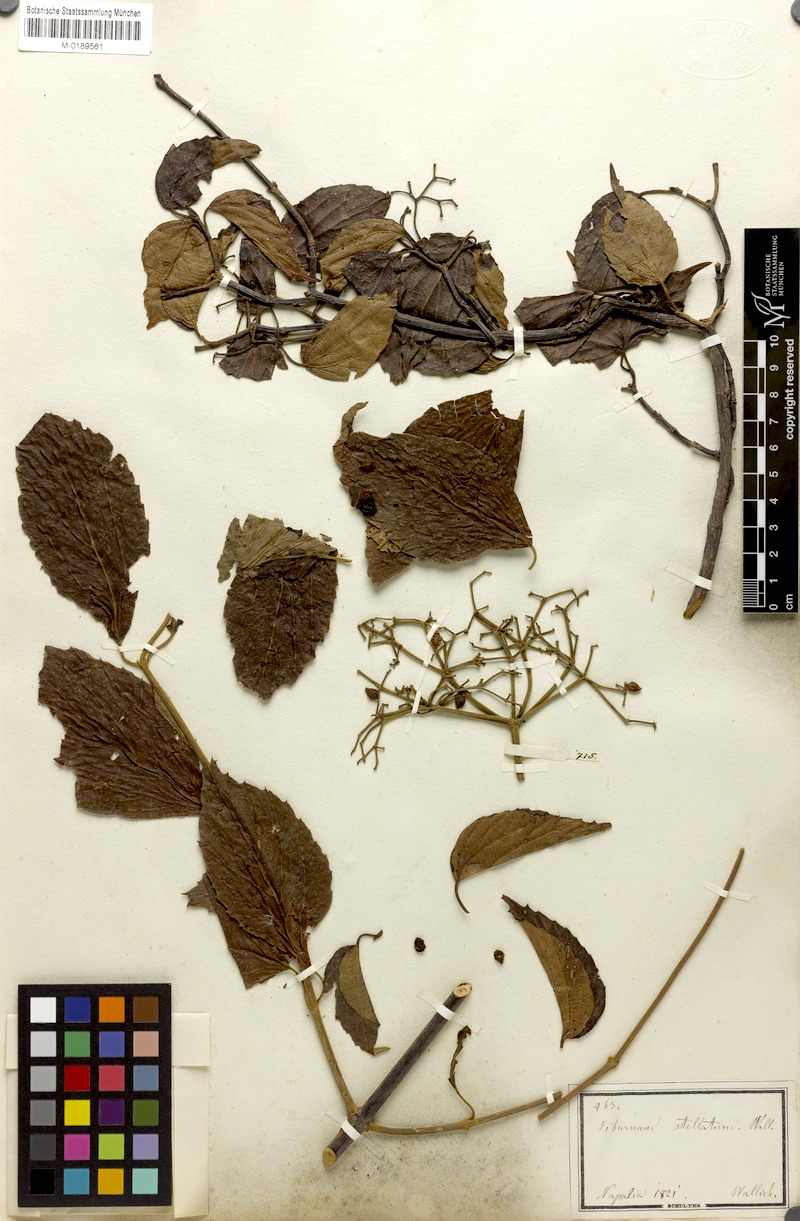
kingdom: Plantae
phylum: Tracheophyta
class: Magnoliopsida
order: Dipsacales
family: Viburnaceae
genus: Viburnum
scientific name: Viburnum mullaha
